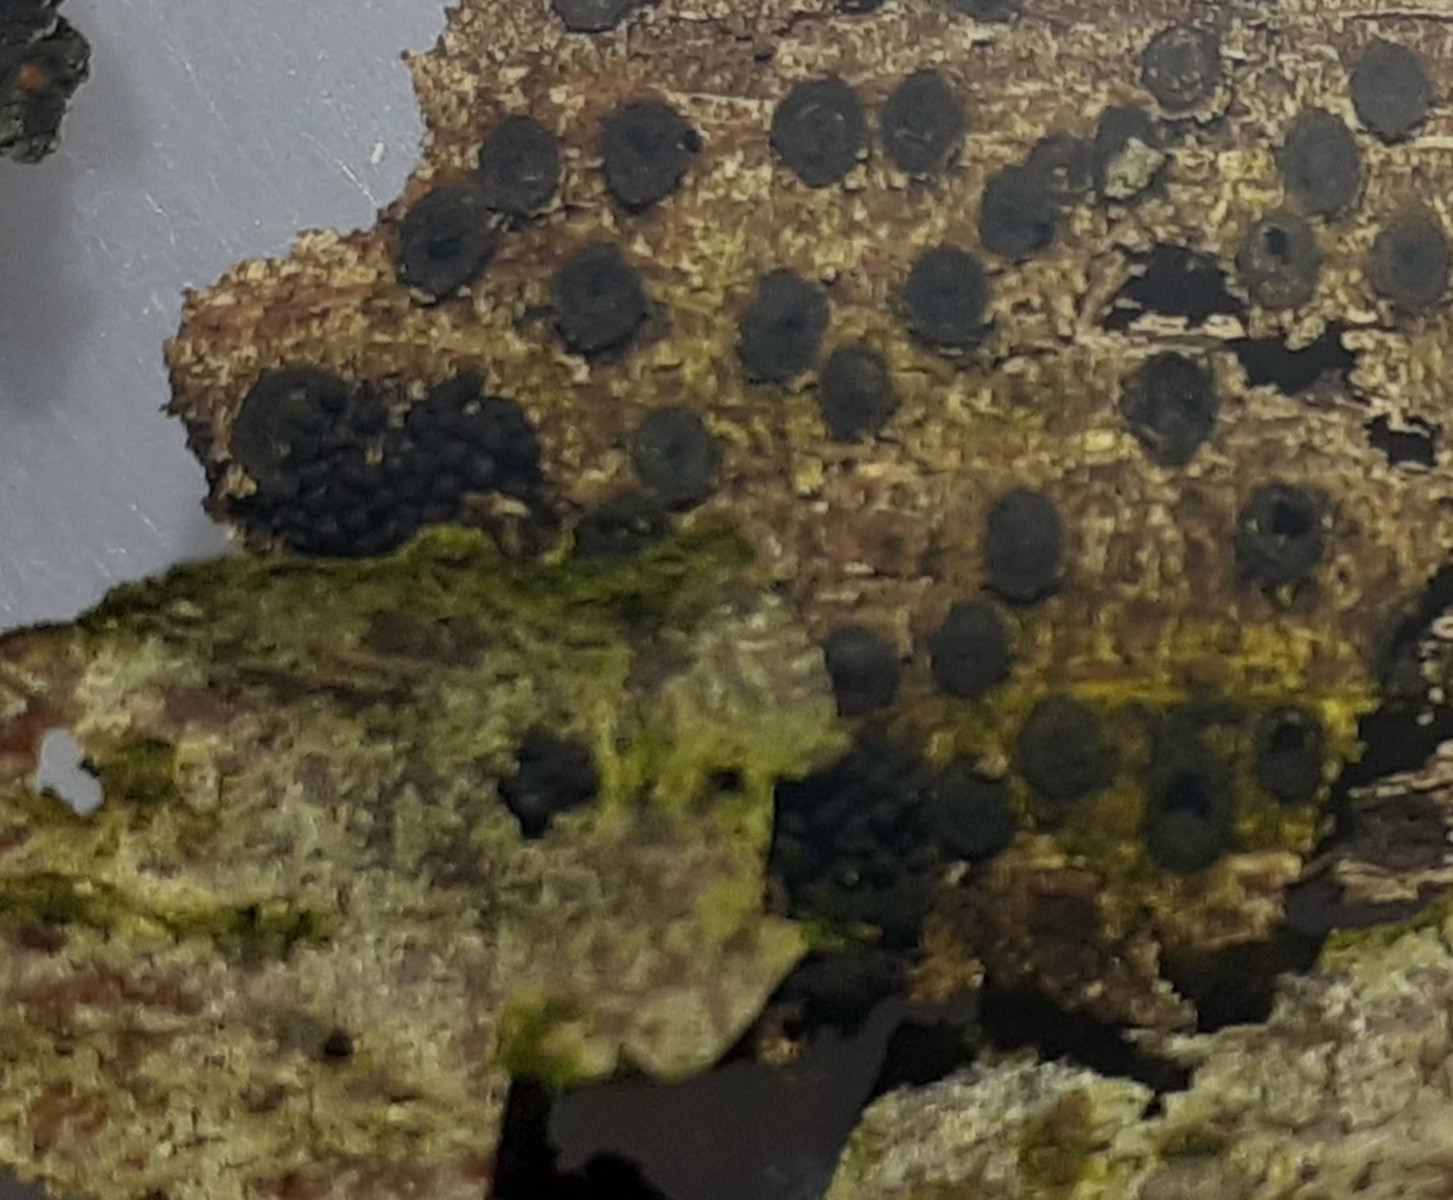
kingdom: Fungi
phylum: Ascomycota
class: Sordariomycetes
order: Coronophorales
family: Nitschkiaceae
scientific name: Nitschkiaceae
